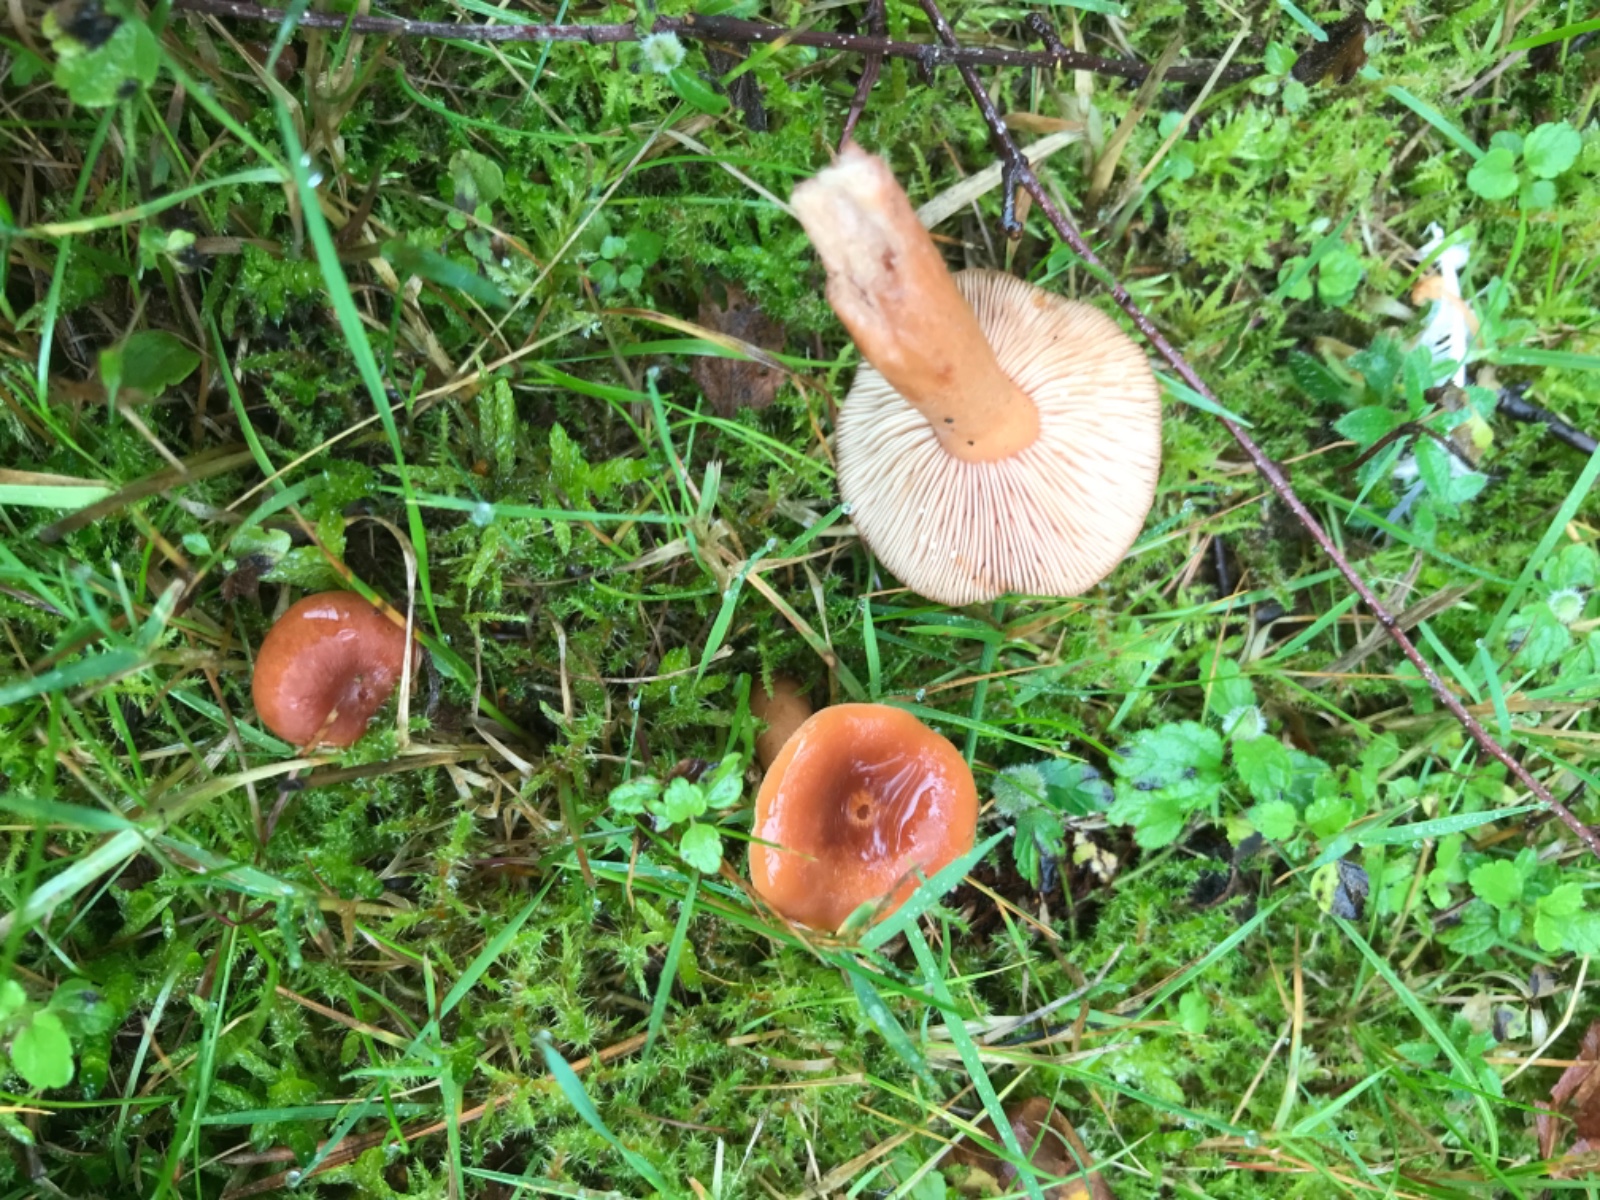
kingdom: Fungi
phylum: Basidiomycota
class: Agaricomycetes
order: Russulales
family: Russulaceae
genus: Lactarius
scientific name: Lactarius rufus
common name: rødbrun mælkehat
